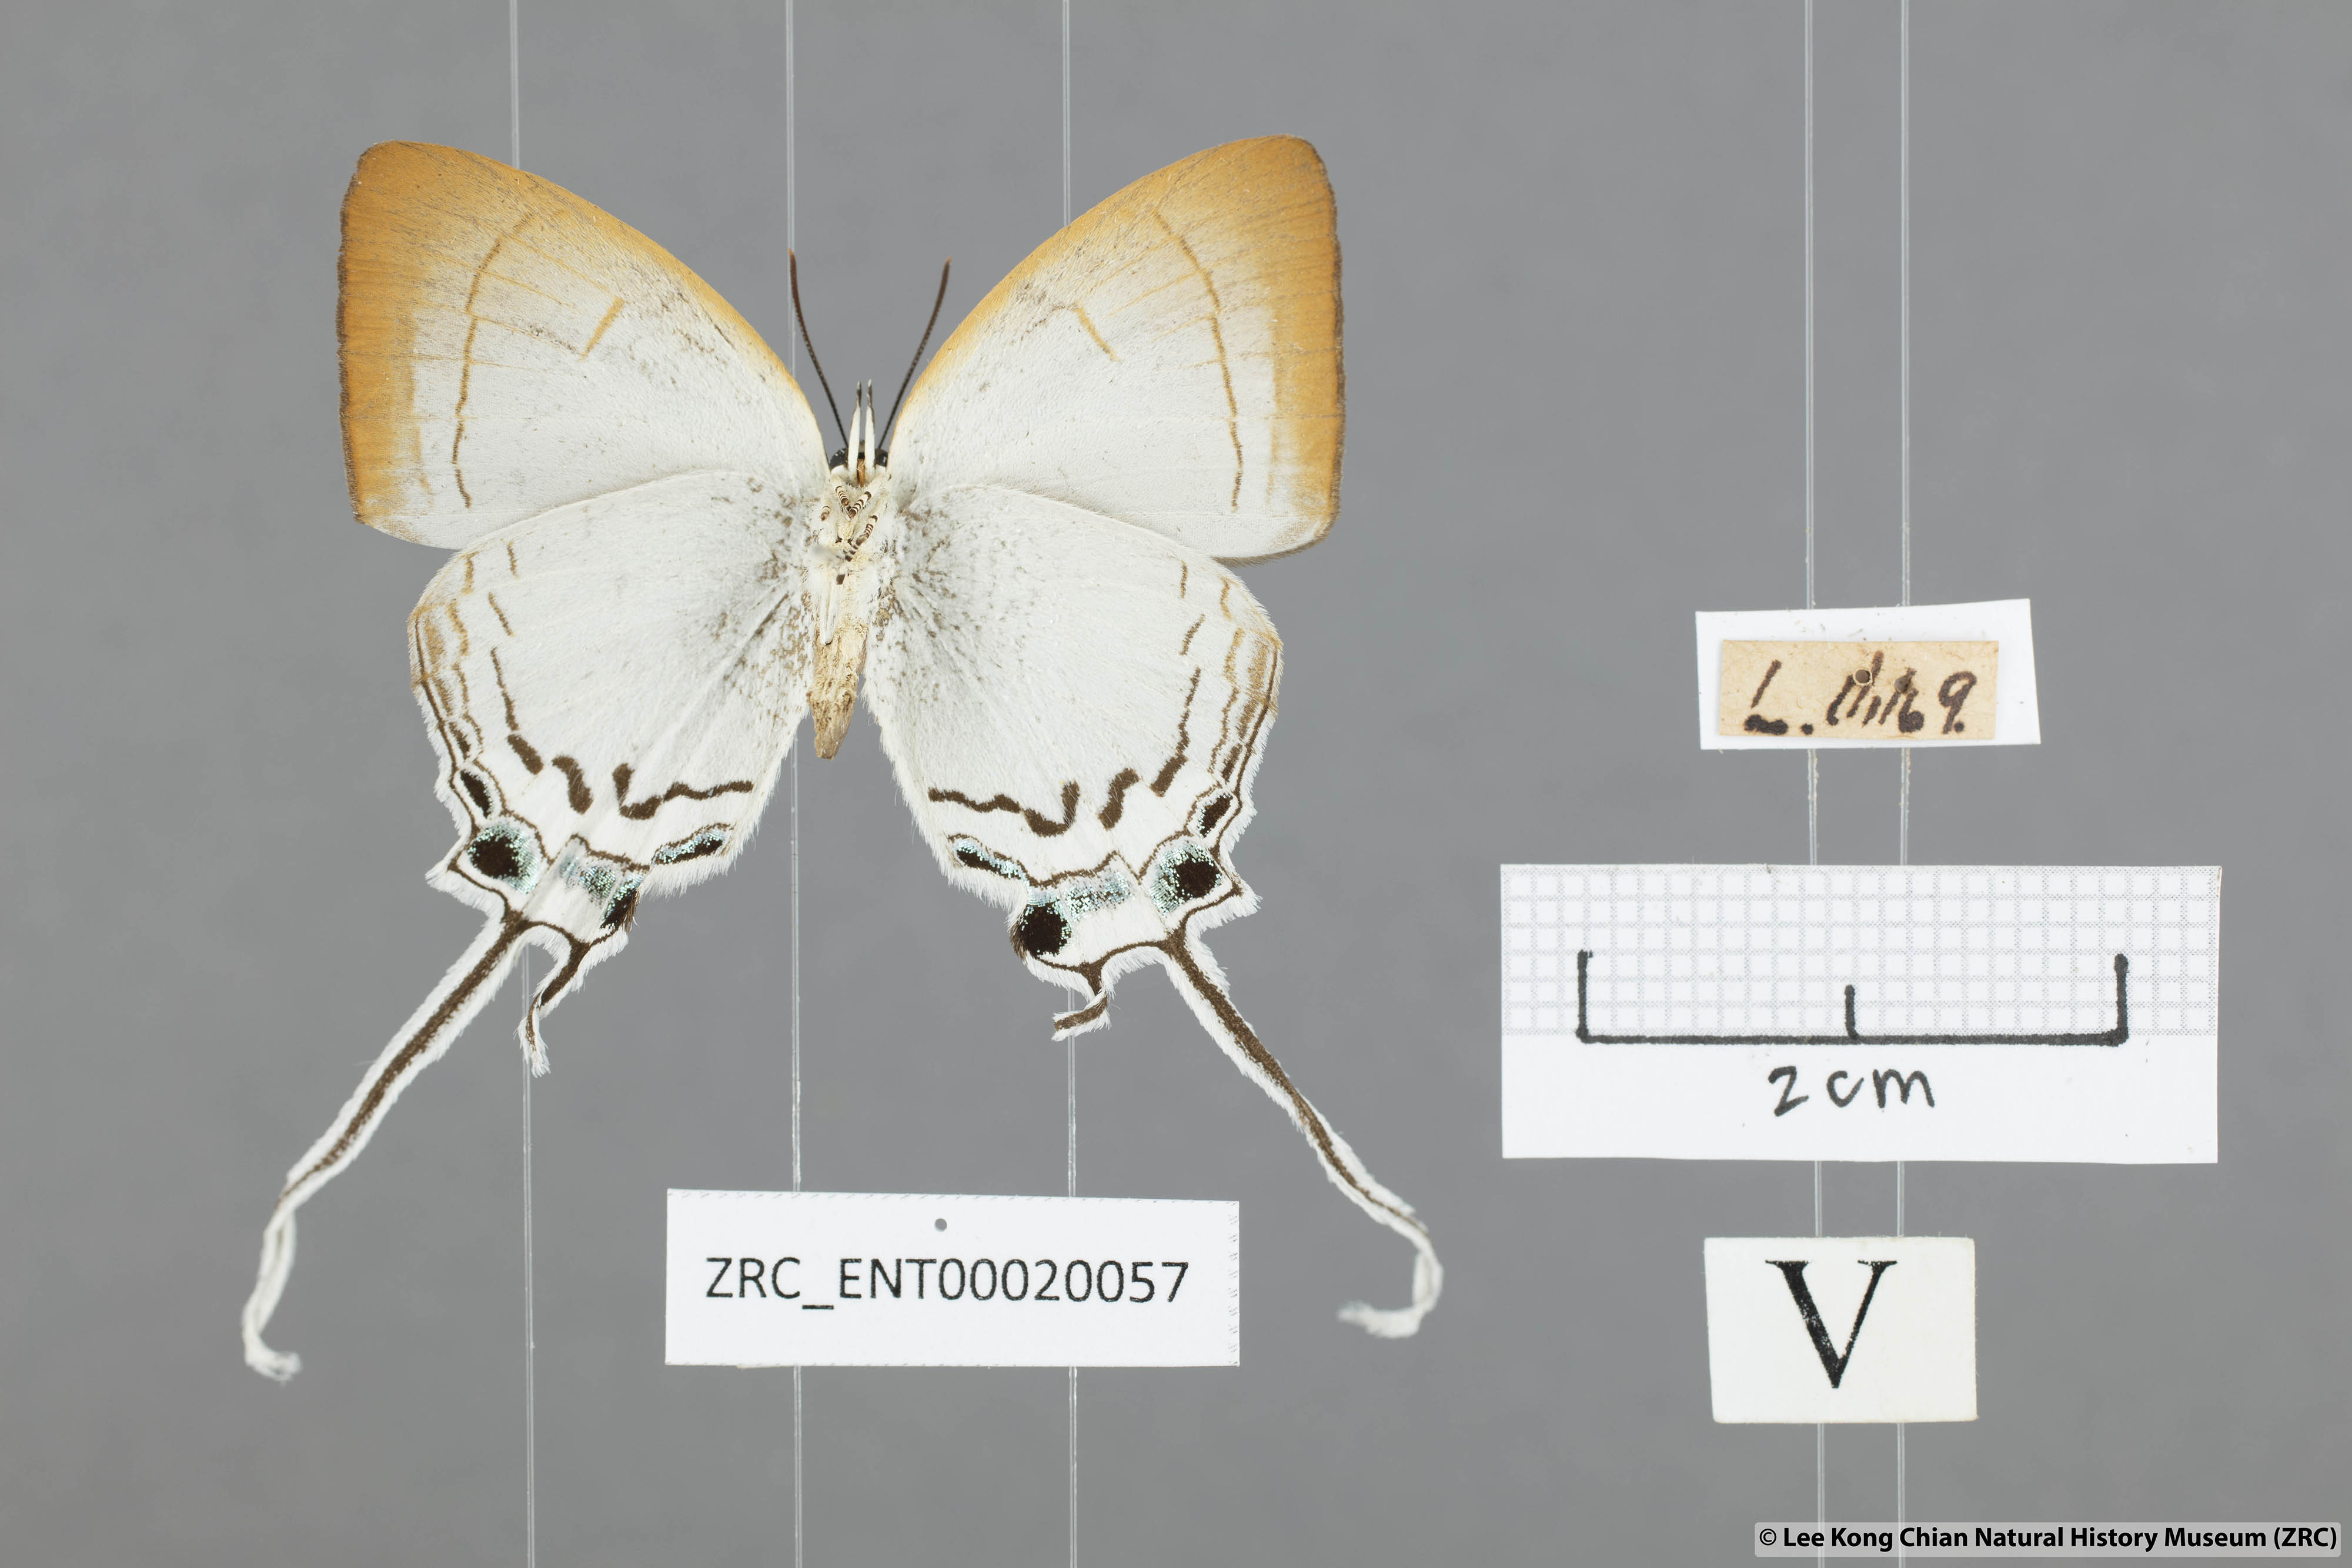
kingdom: Animalia
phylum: Arthropoda
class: Insecta
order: Lepidoptera
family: Lycaenidae
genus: Cheritra
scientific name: Cheritra freja
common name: Common imperial
